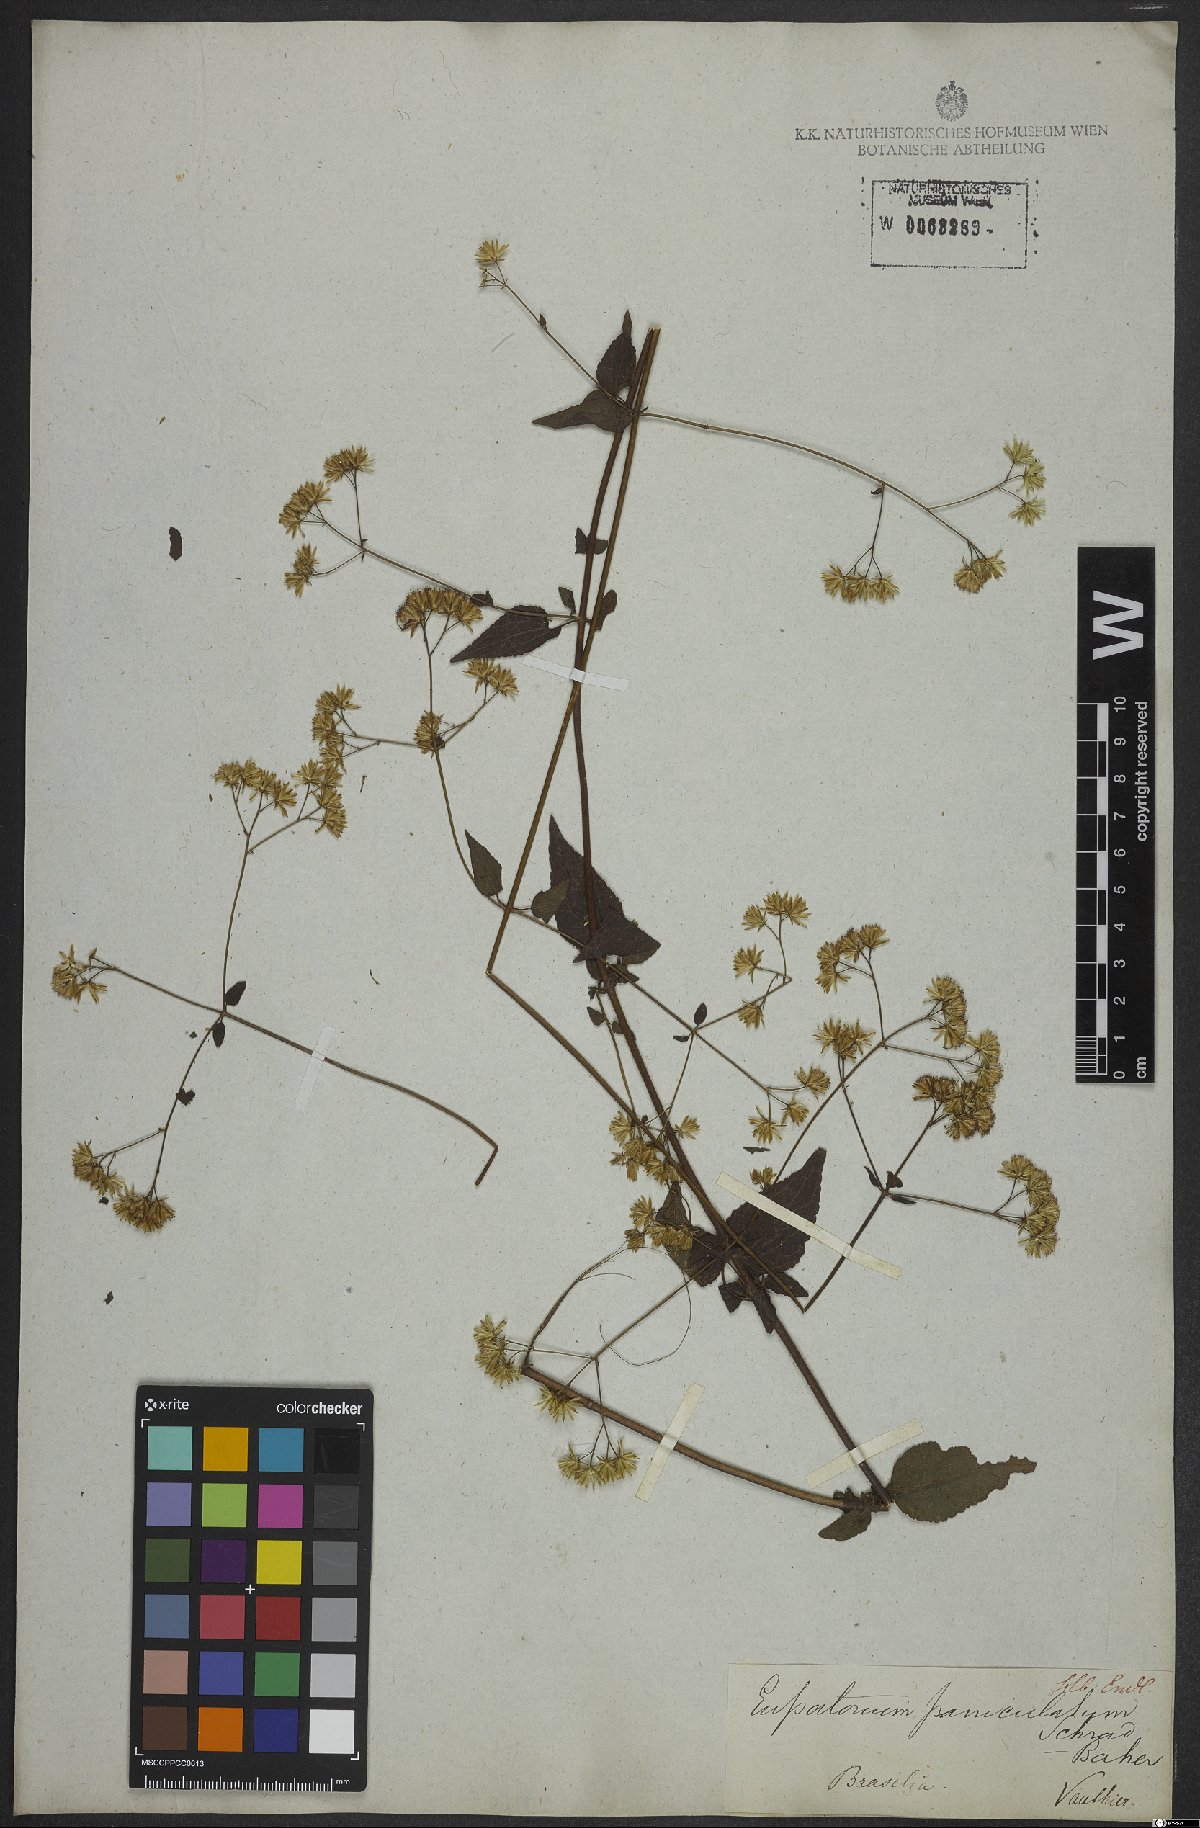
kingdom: Plantae
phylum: Tracheophyta
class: Magnoliopsida
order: Asterales
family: Asteraceae
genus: Fleischmannia
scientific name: Fleischmannia microstemon
